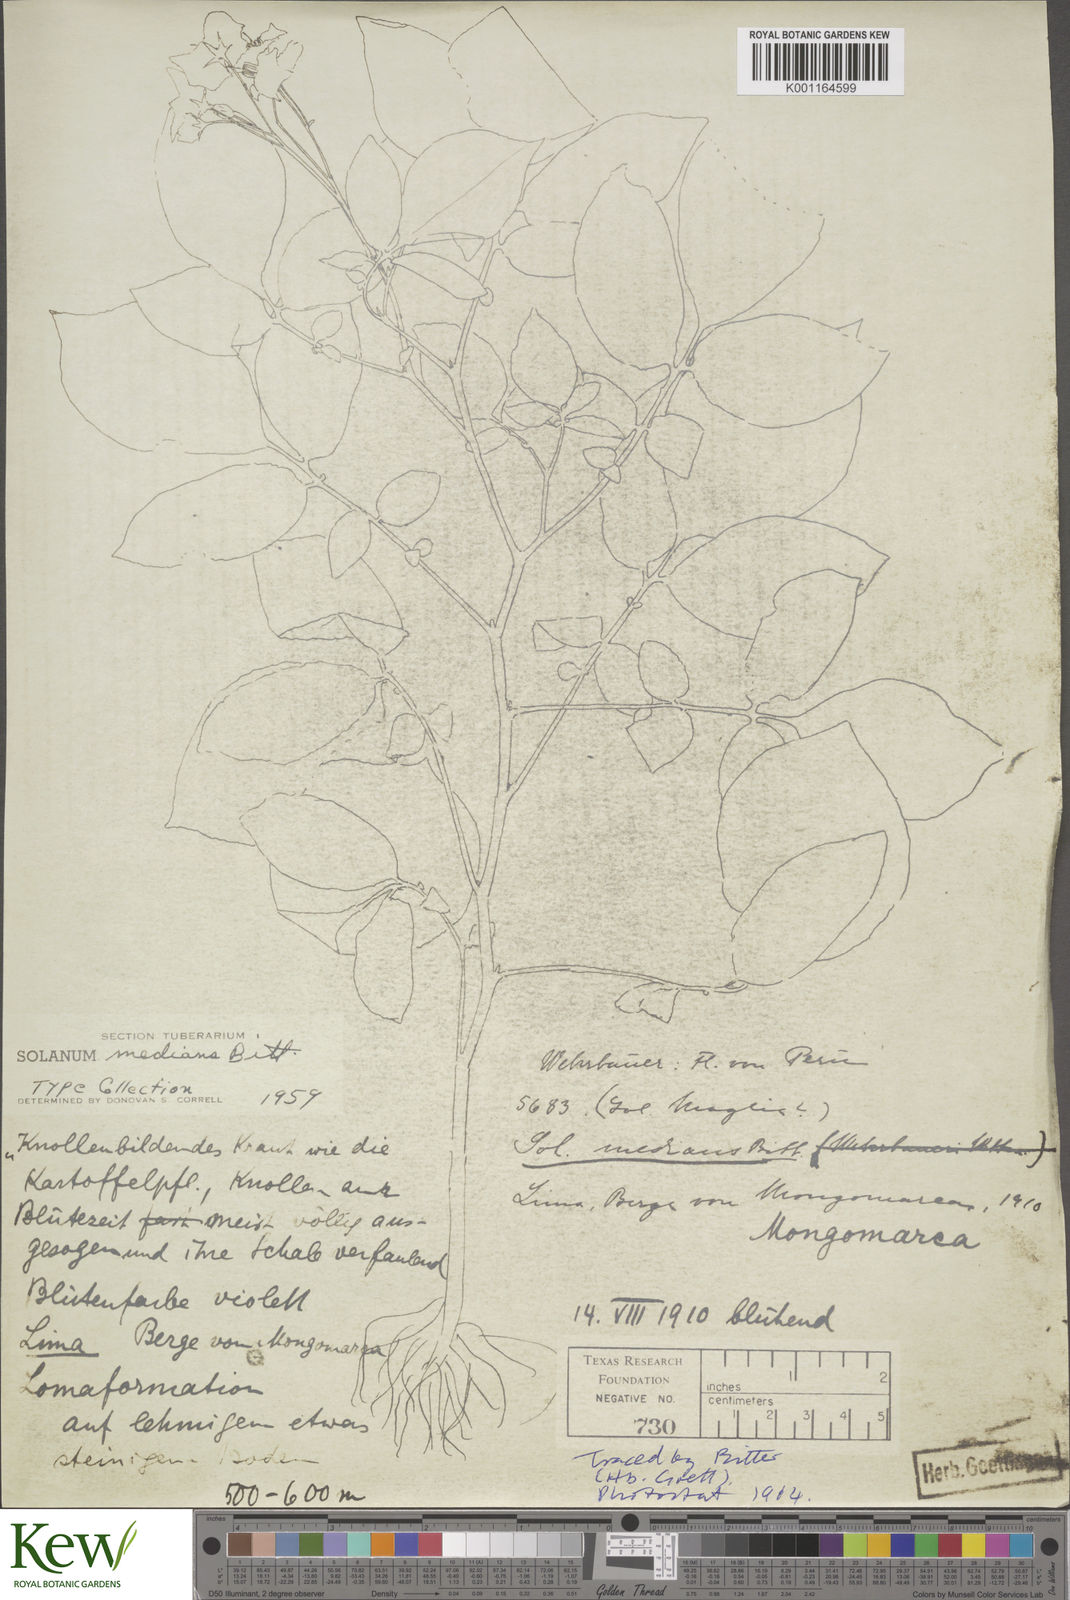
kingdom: Plantae
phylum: Tracheophyta
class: Magnoliopsida
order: Solanales
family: Solanaceae
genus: Solanum
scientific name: Solanum medians
